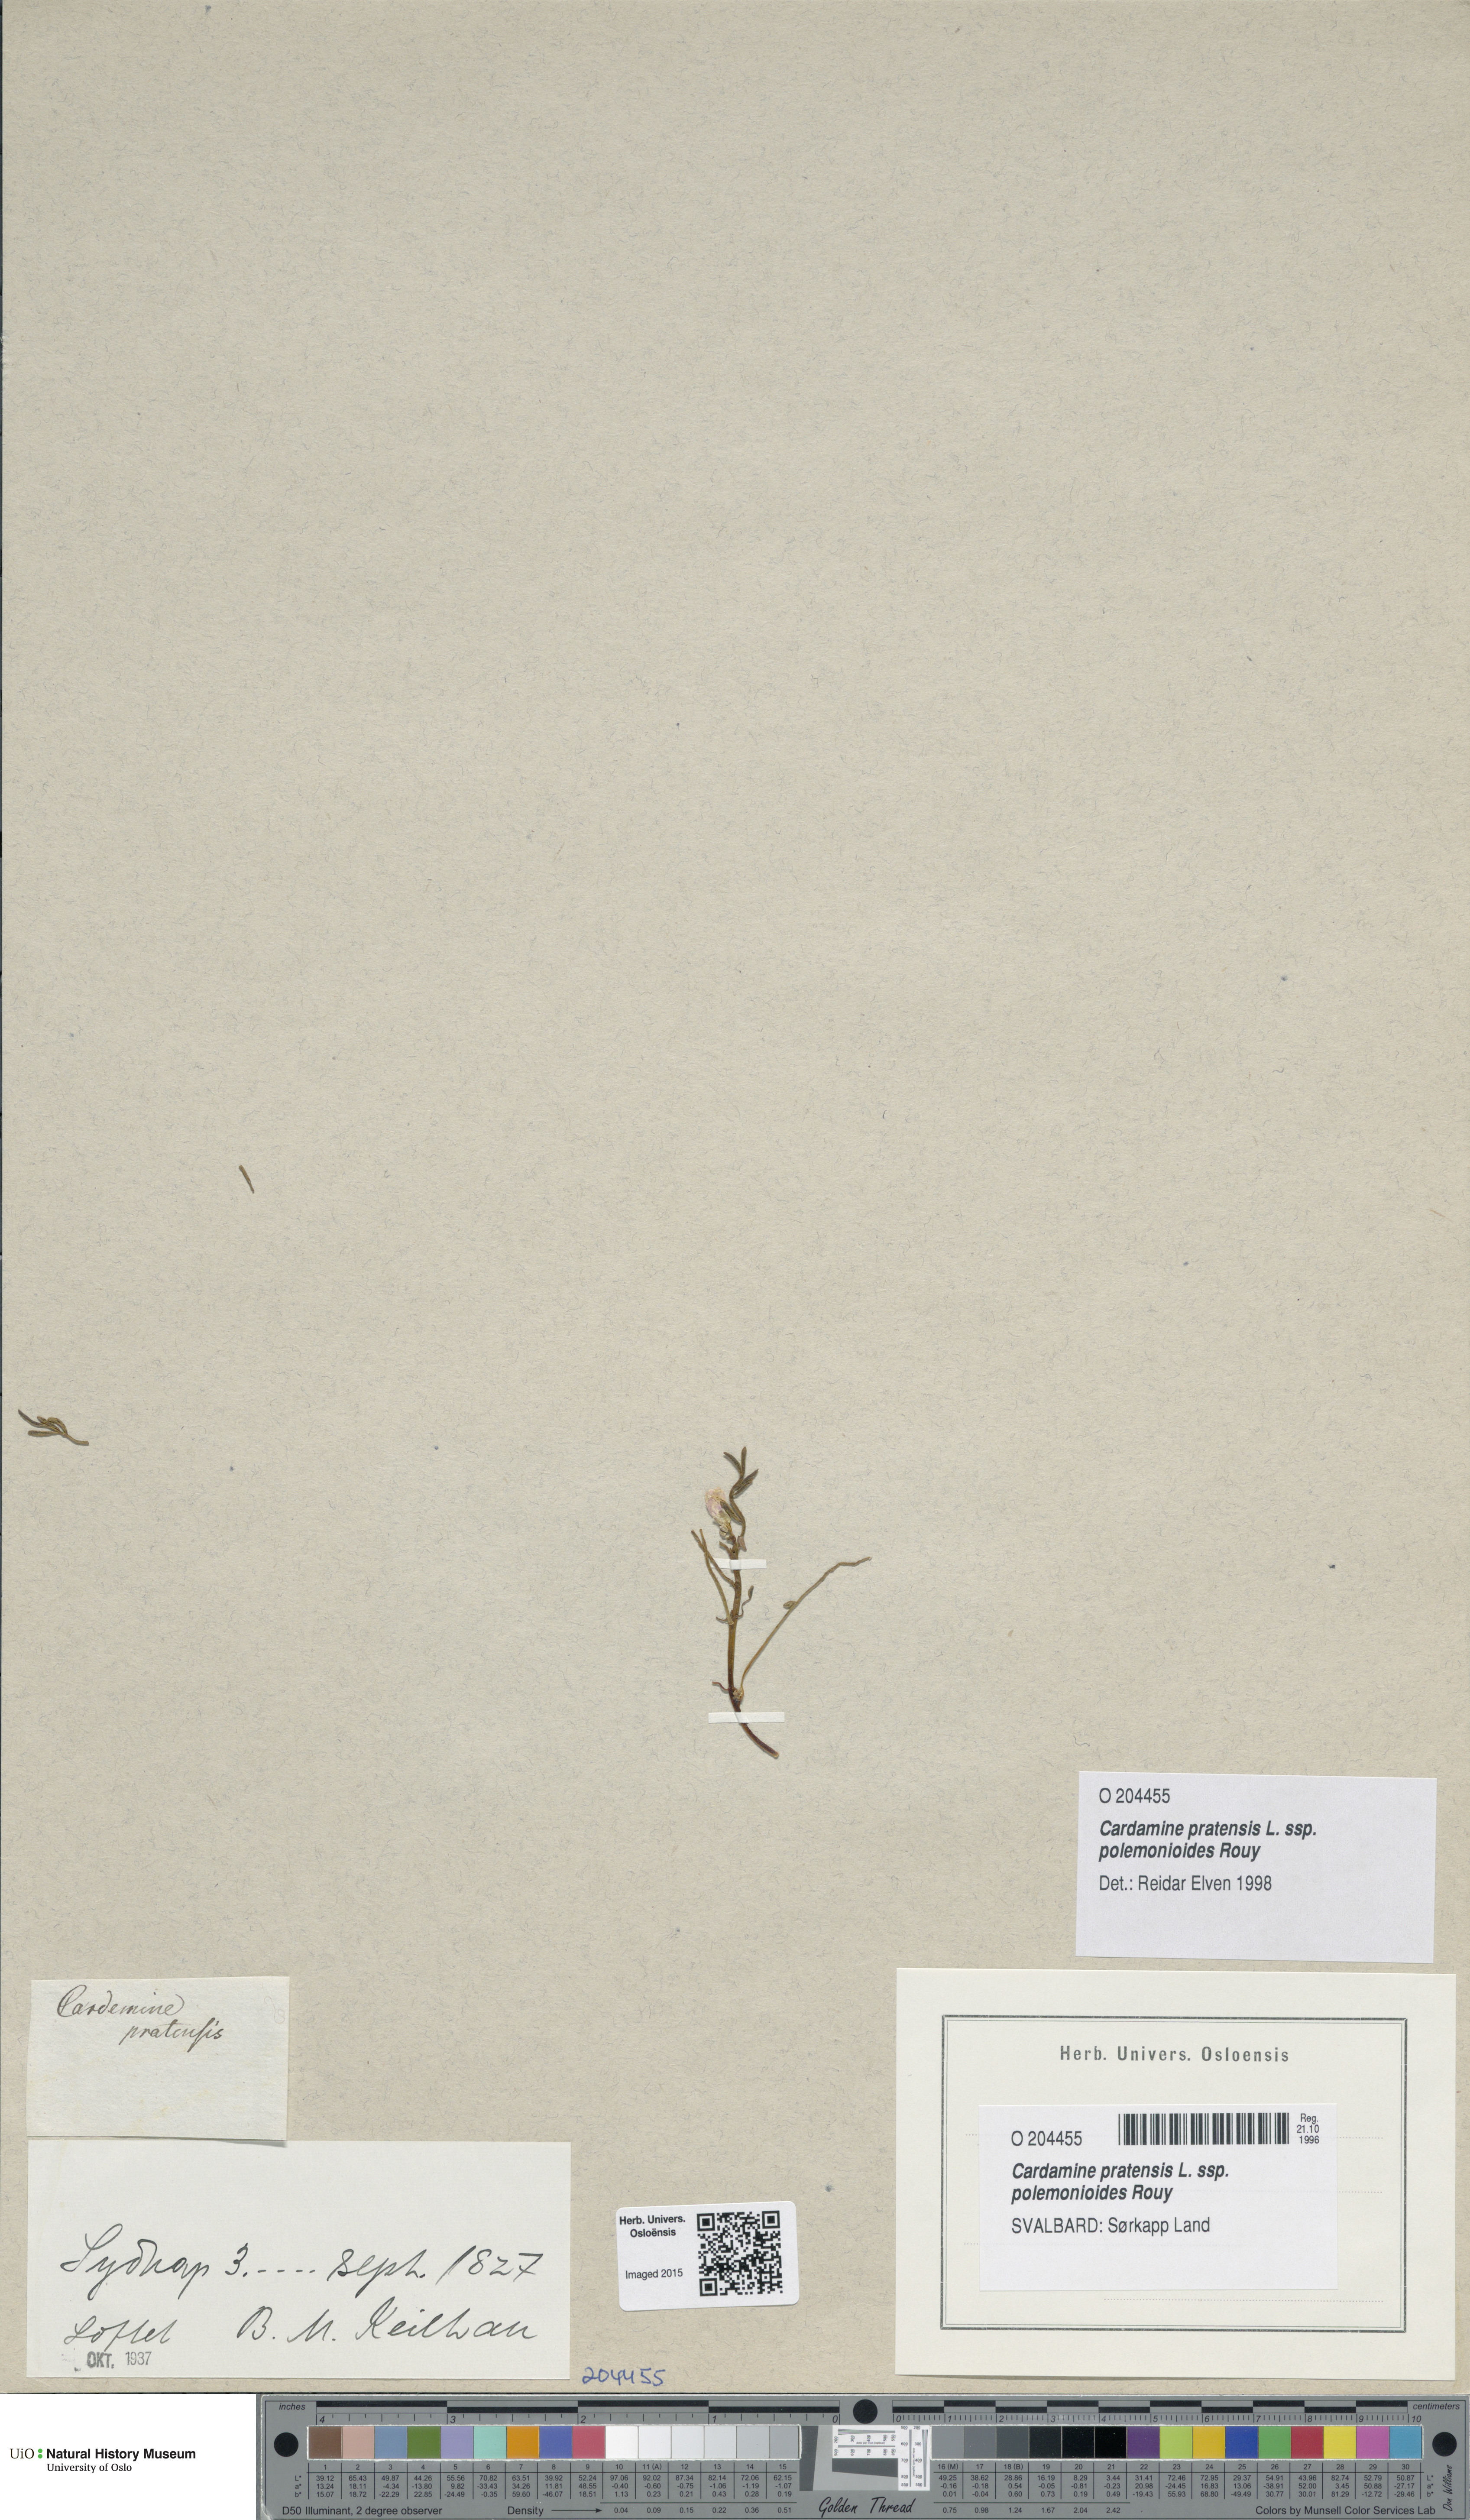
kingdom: Plantae
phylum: Tracheophyta
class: Magnoliopsida
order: Brassicales
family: Brassicaceae
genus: Cardamine
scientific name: Cardamine nymanii
